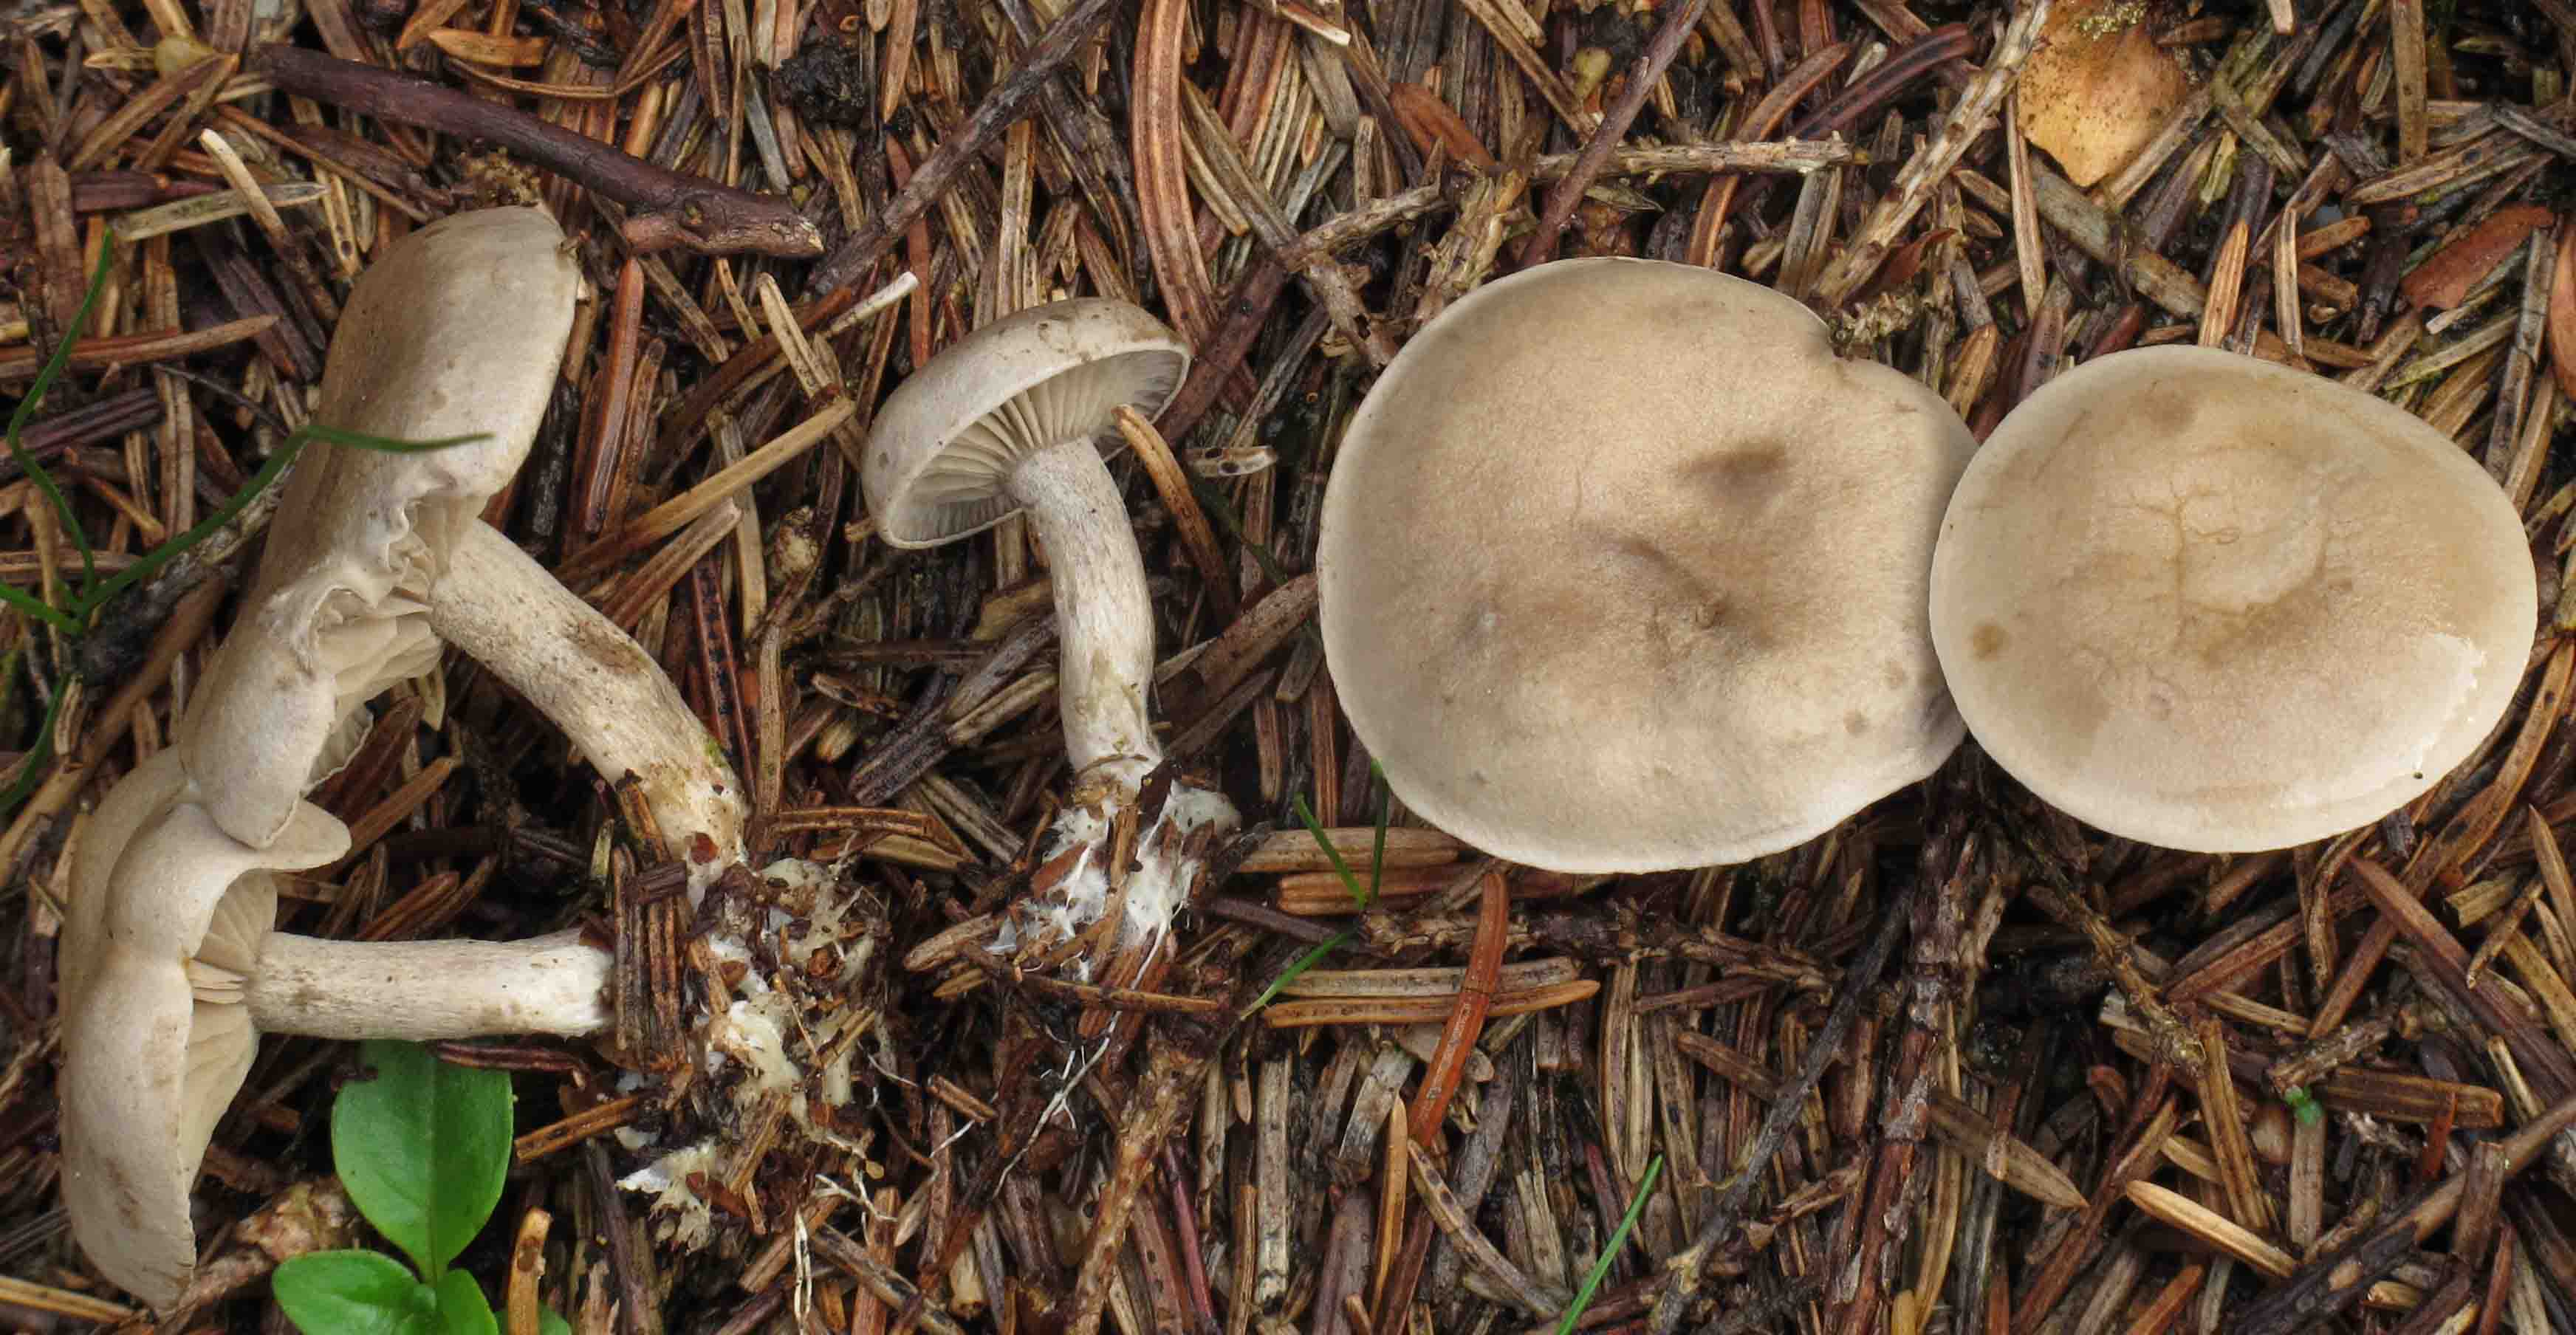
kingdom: Fungi
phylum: Basidiomycota
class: Agaricomycetes
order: Agaricales
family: Entolomataceae
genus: Rhodocybe
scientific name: Rhodocybe tugrulii
